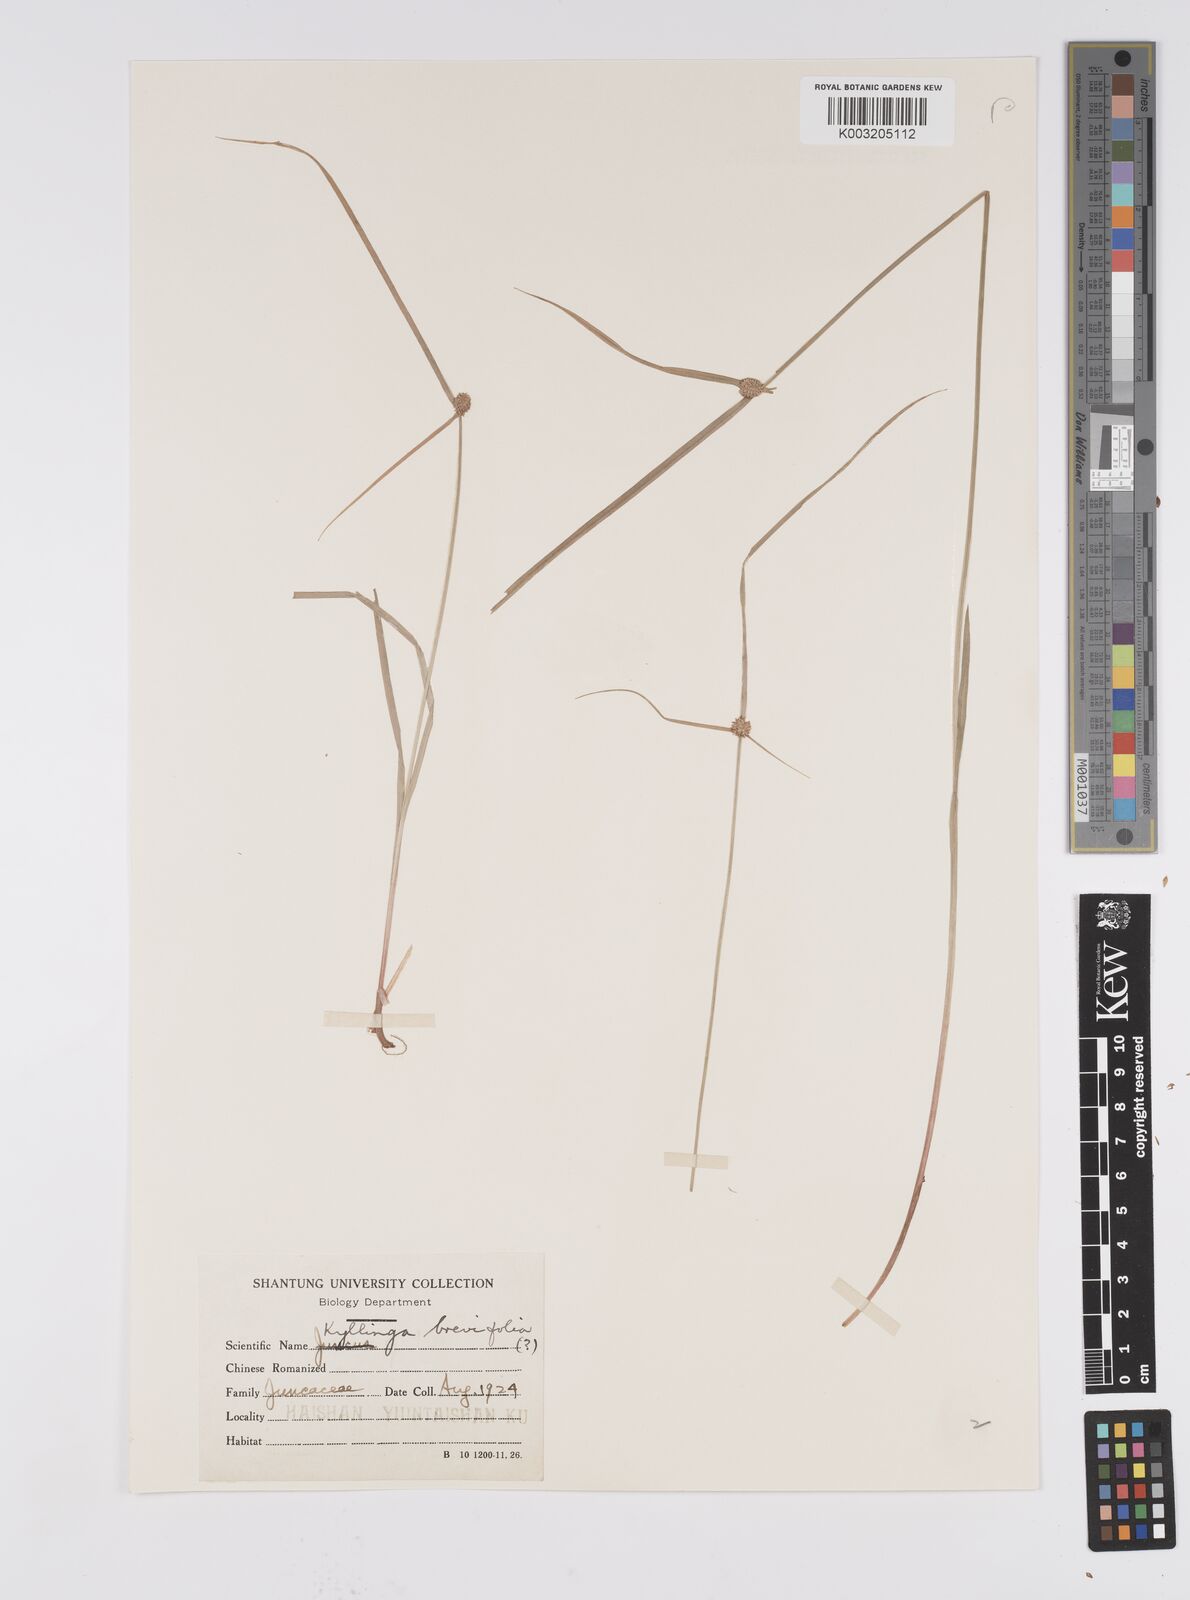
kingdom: Plantae
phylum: Tracheophyta
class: Liliopsida
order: Poales
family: Cyperaceae
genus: Cyperus
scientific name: Cyperus brevifolius
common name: Globe kyllinga
